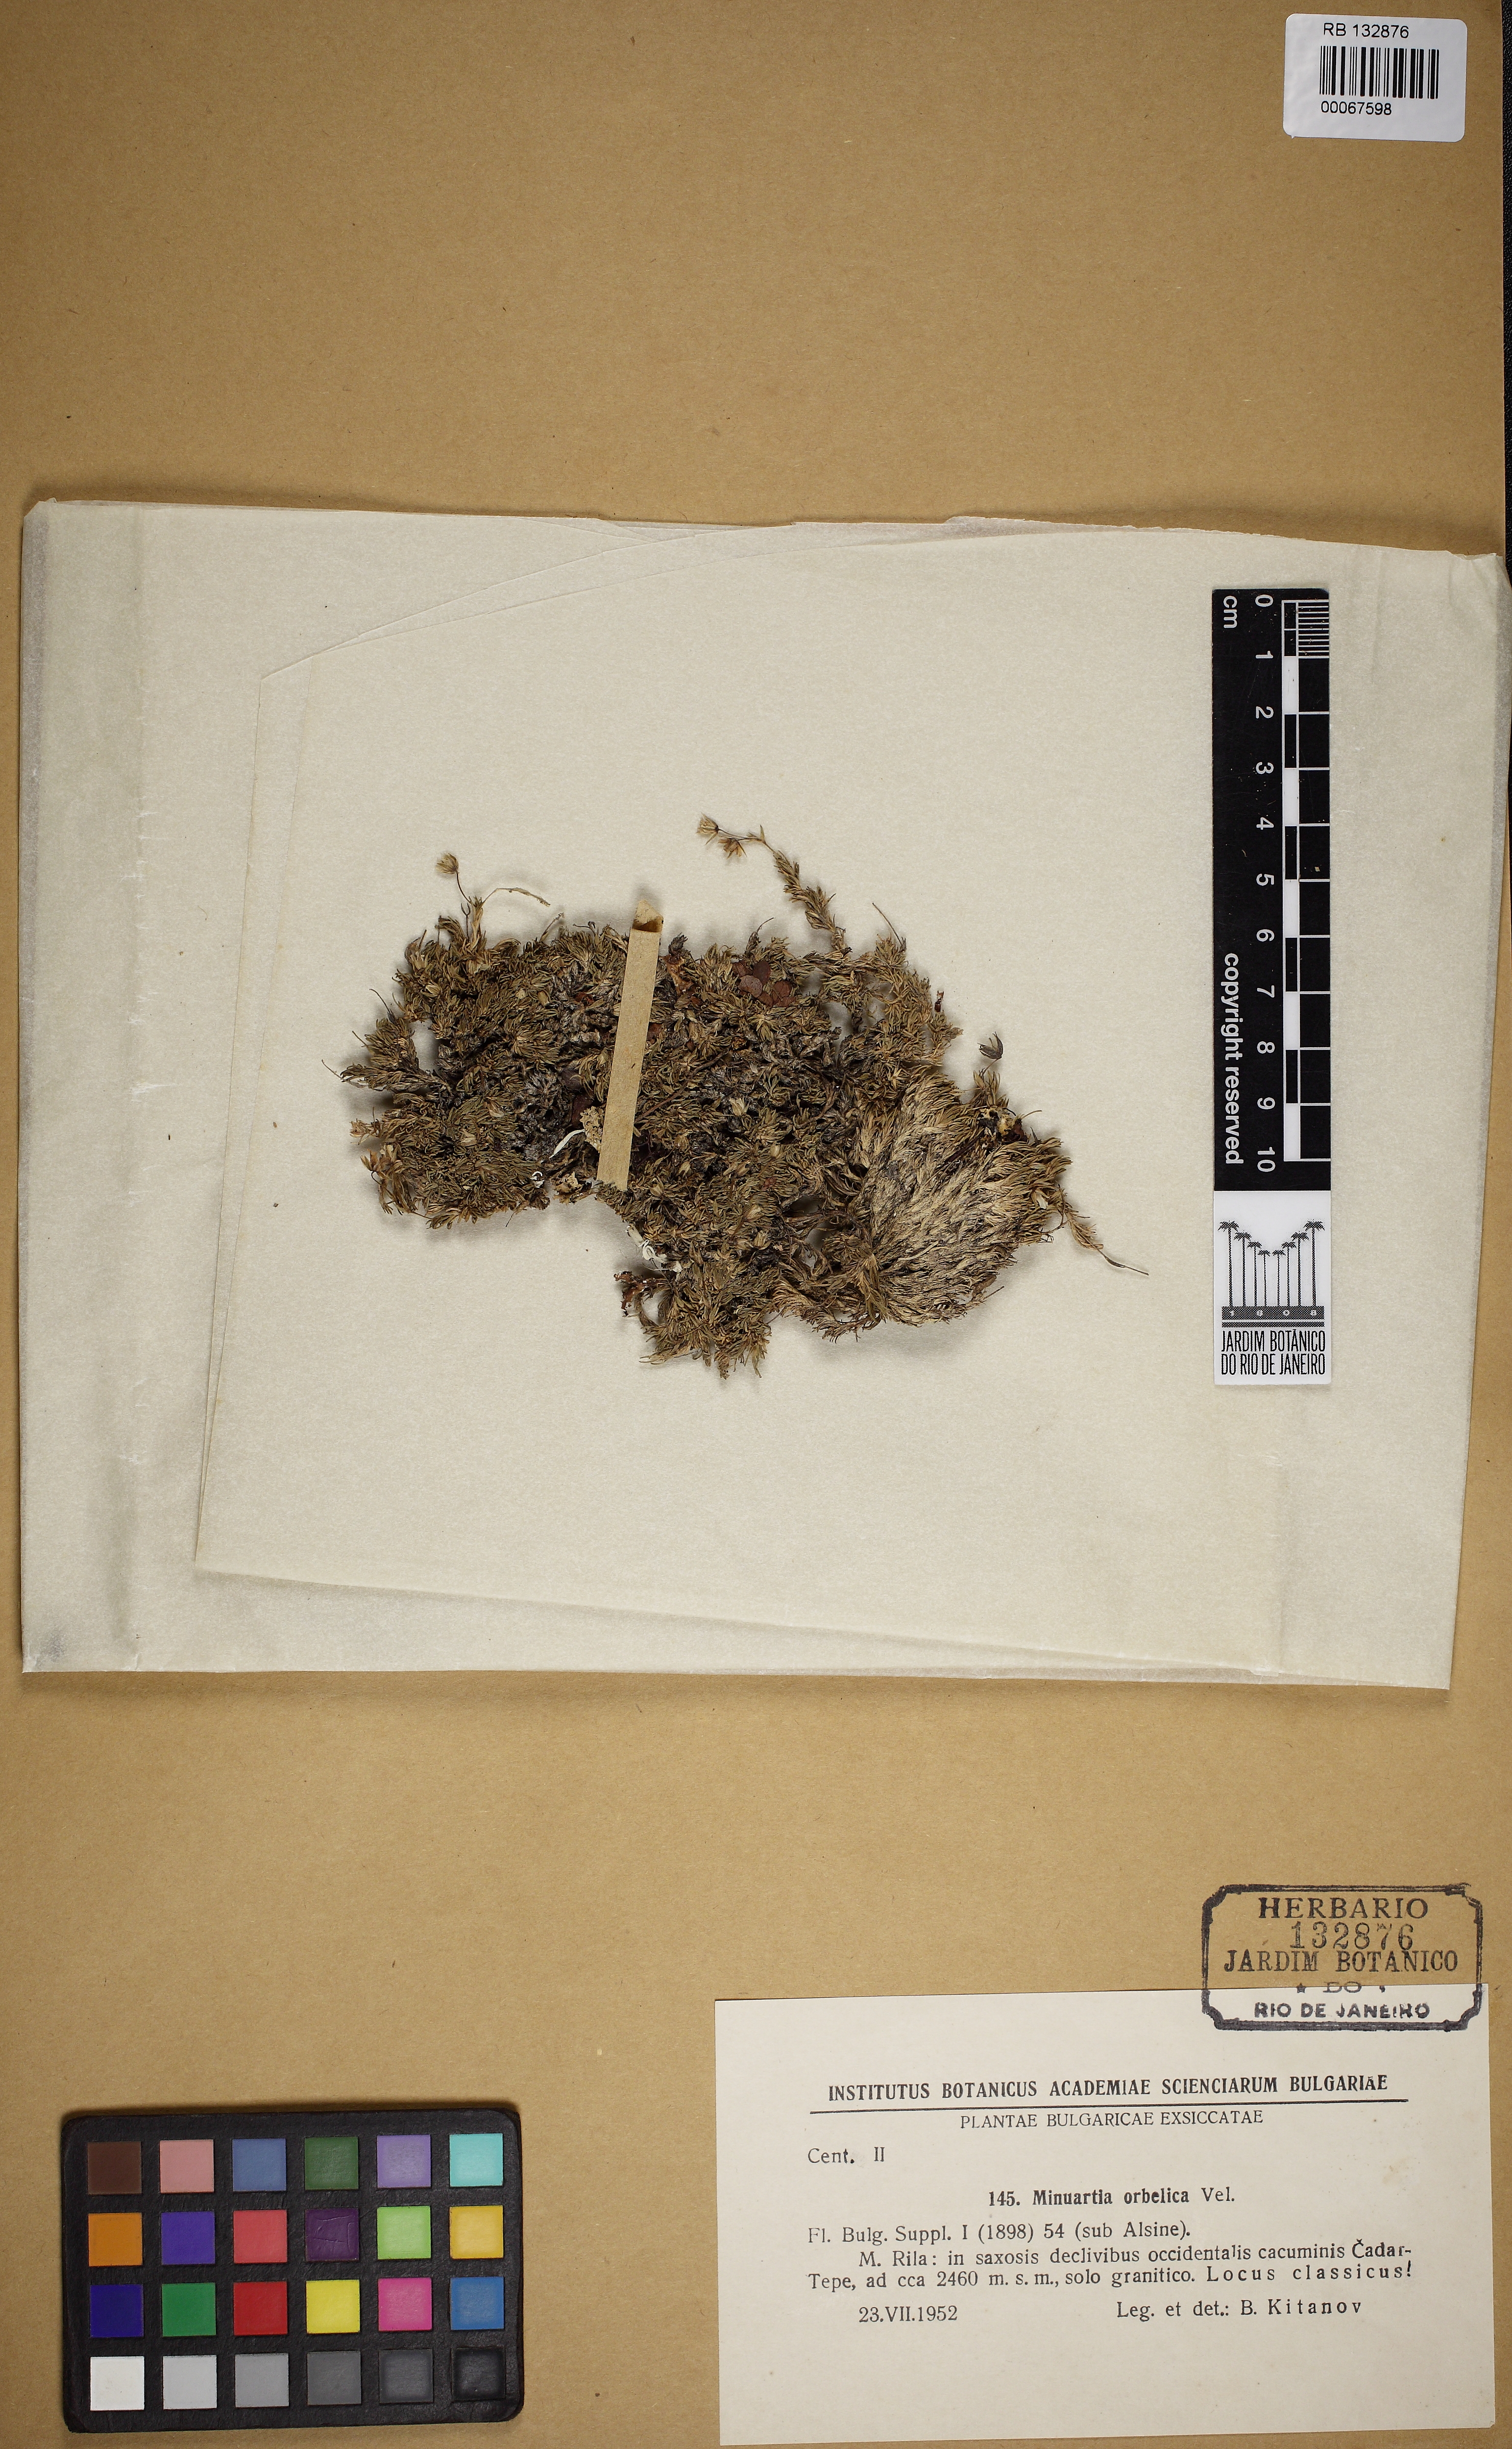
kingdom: Plantae
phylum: Tracheophyta
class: Magnoliopsida
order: Caryophyllales
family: Caryophyllaceae
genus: Minuartia
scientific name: Minuartia
